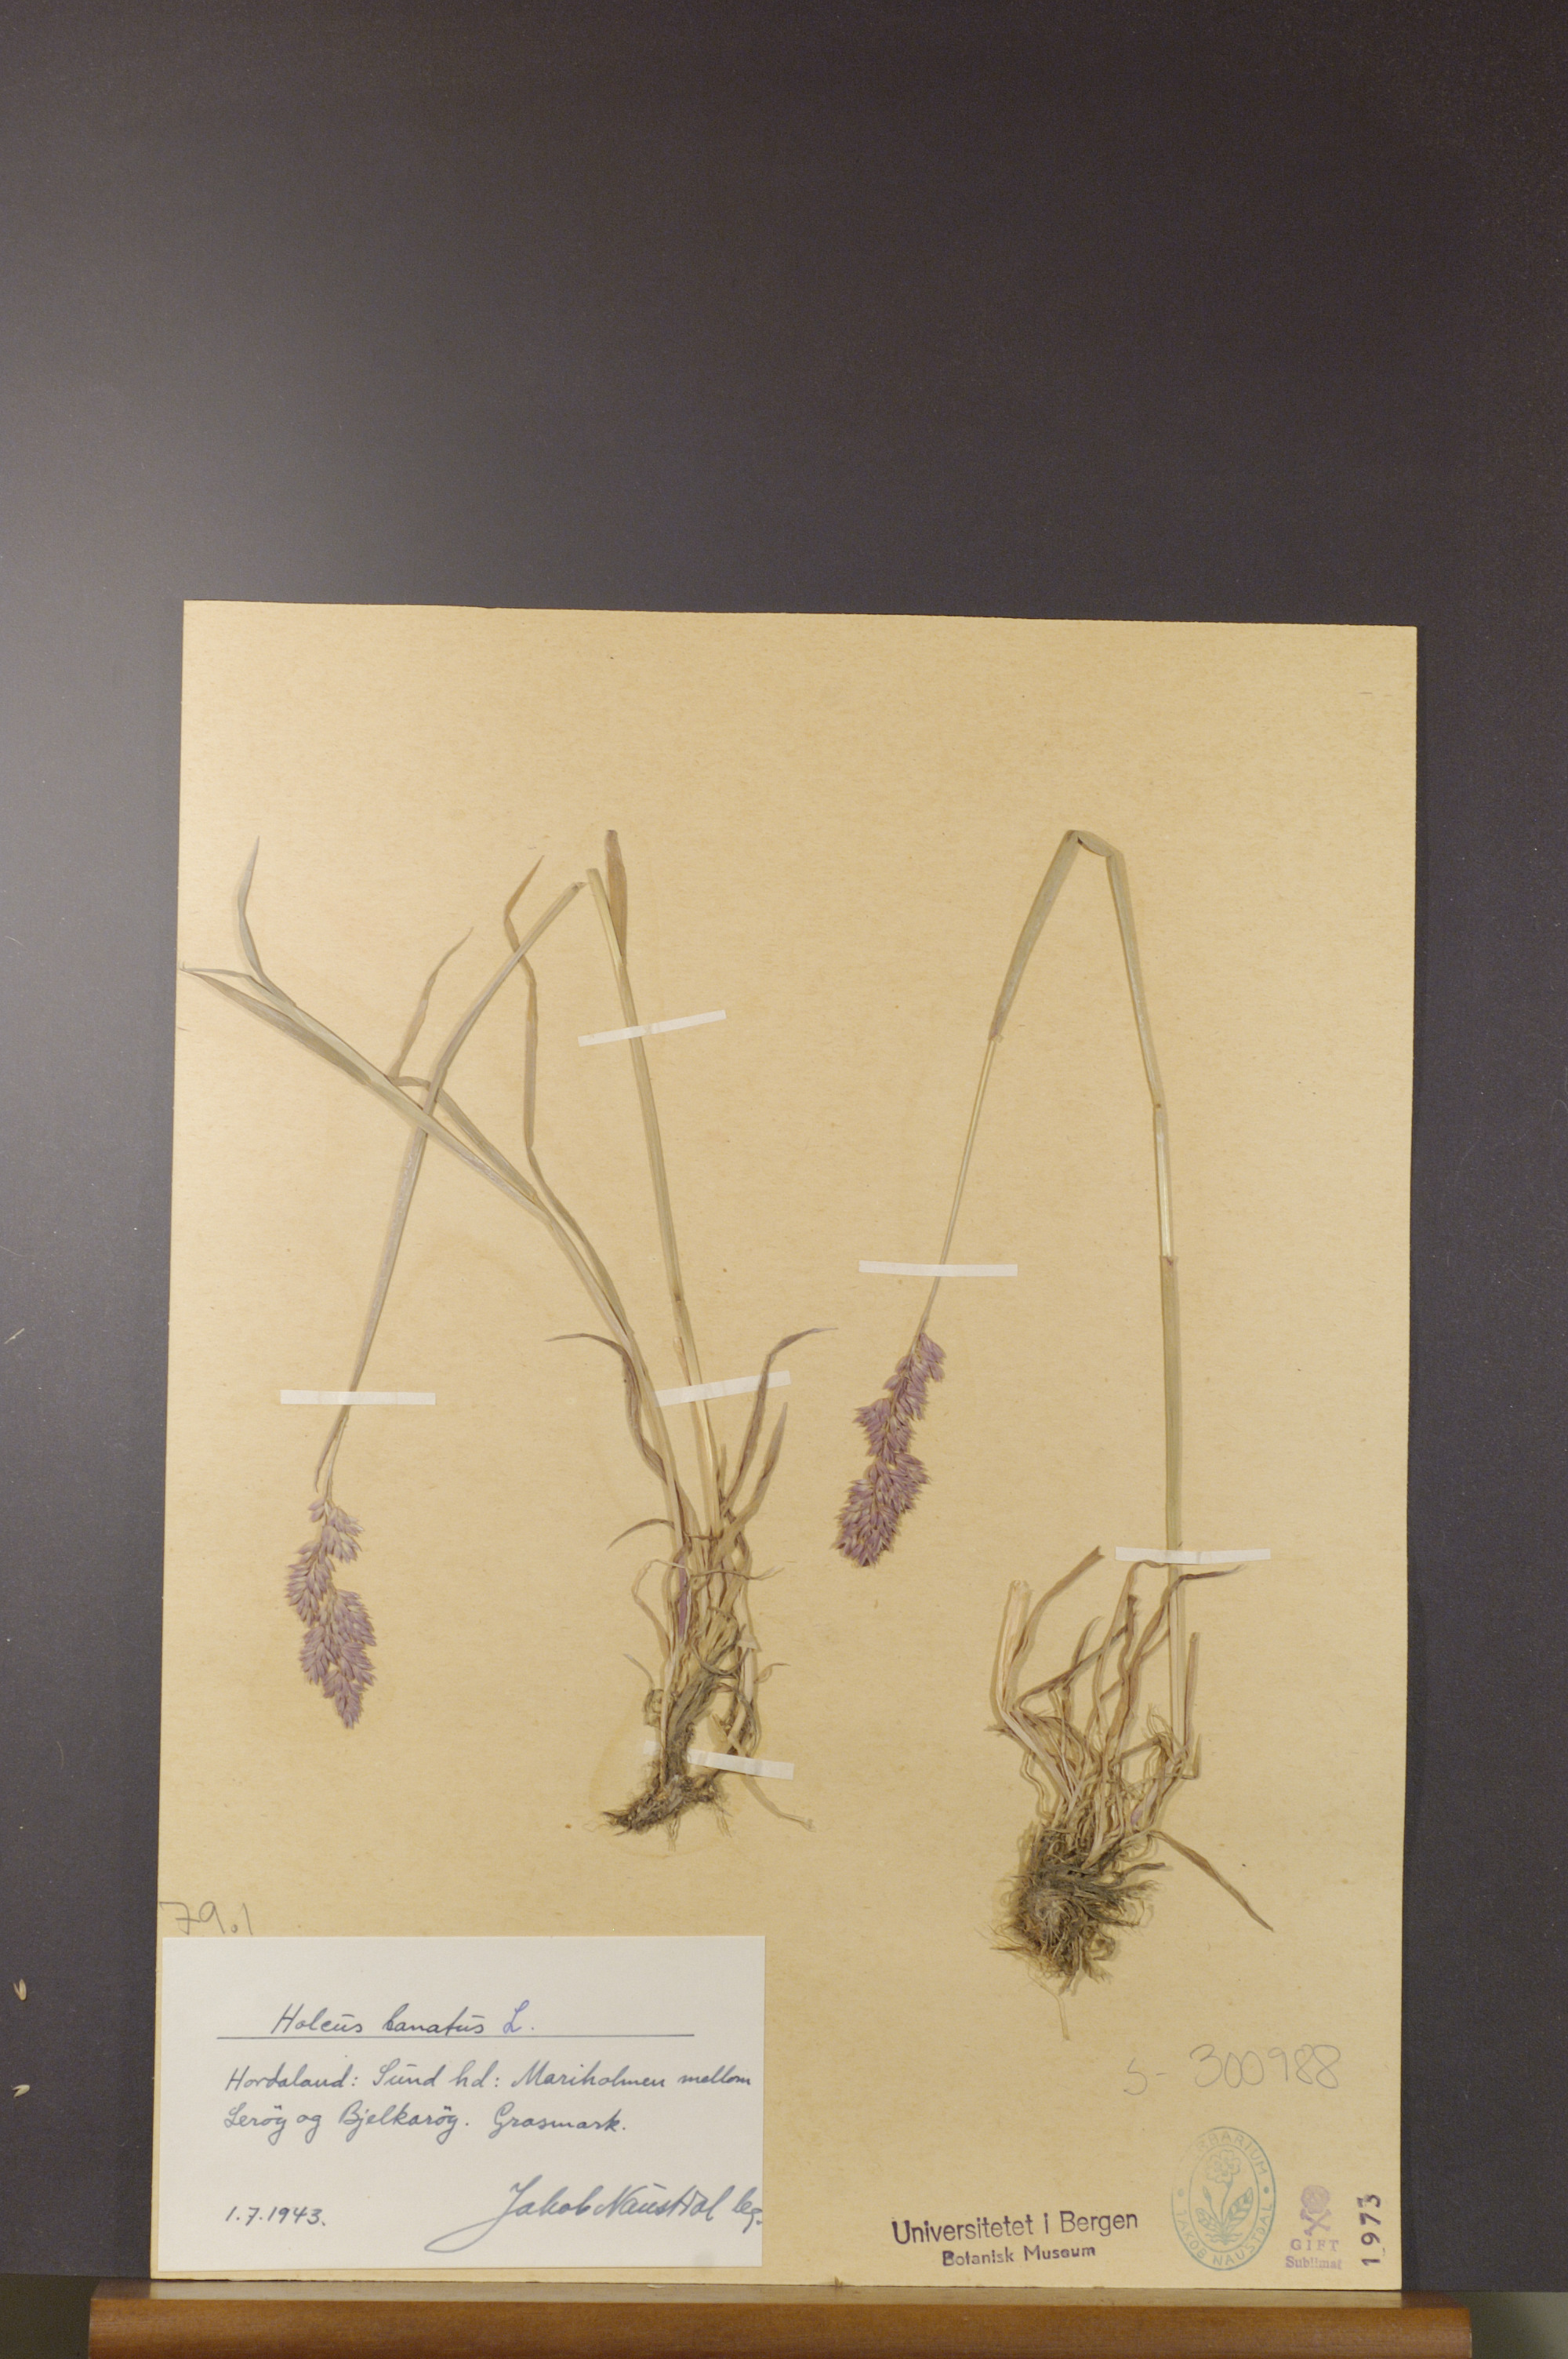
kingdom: Plantae
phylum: Tracheophyta
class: Liliopsida
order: Poales
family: Poaceae
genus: Holcus
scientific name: Holcus lanatus
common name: Yorkshire-fog
